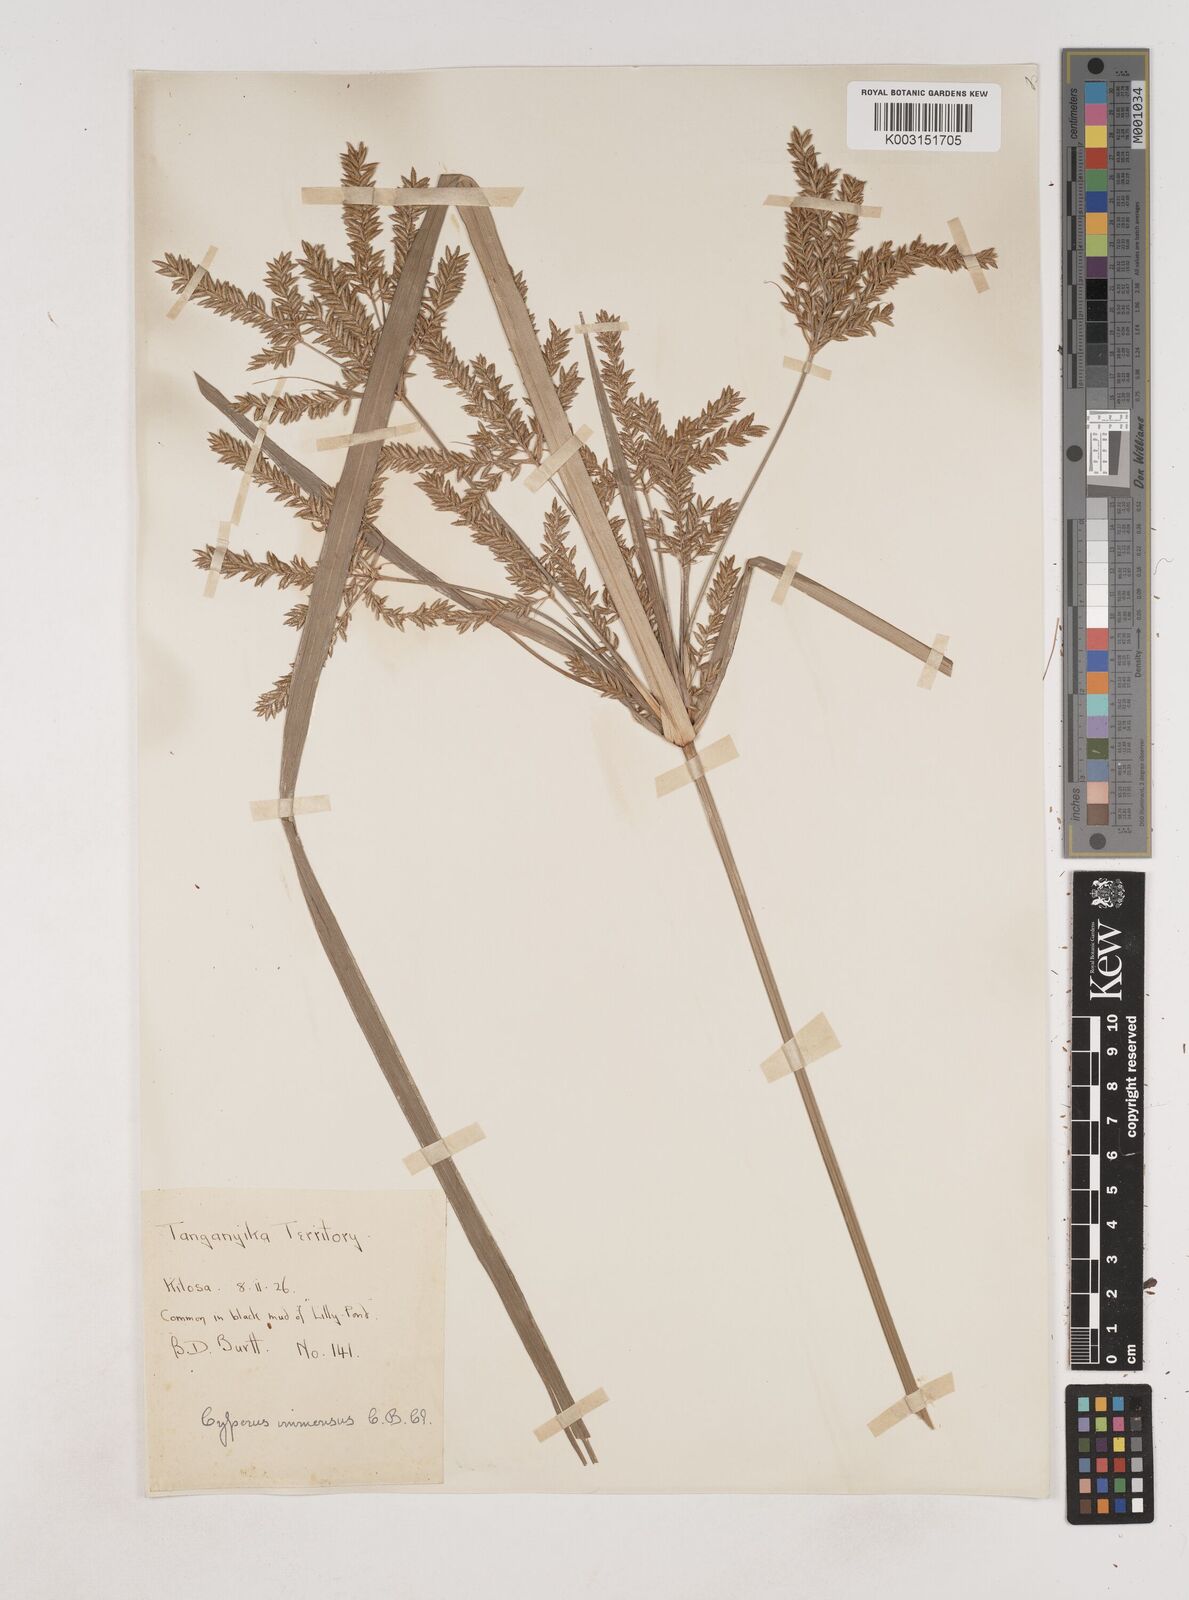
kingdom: Plantae
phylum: Tracheophyta
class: Liliopsida
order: Poales
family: Cyperaceae
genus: Cyperus
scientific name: Cyperus exaltatus
